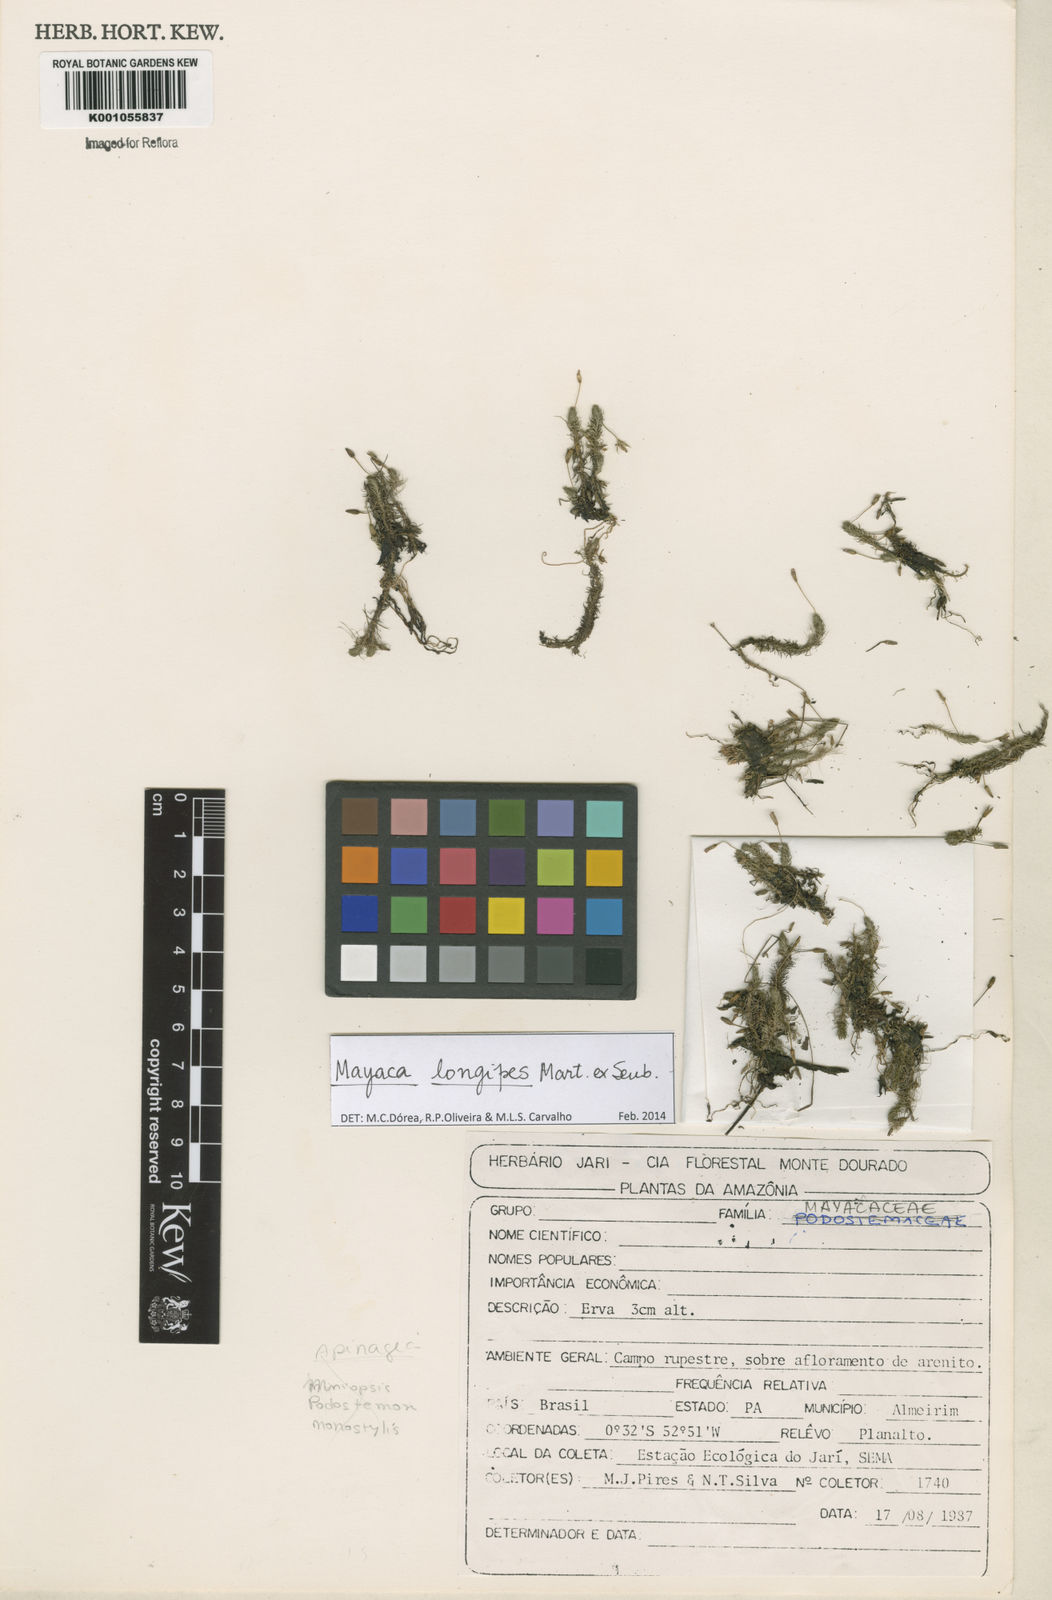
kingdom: Plantae
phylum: Tracheophyta
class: Liliopsida
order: Poales
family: Mayacaceae
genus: Mayaca
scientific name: Mayaca longipes
